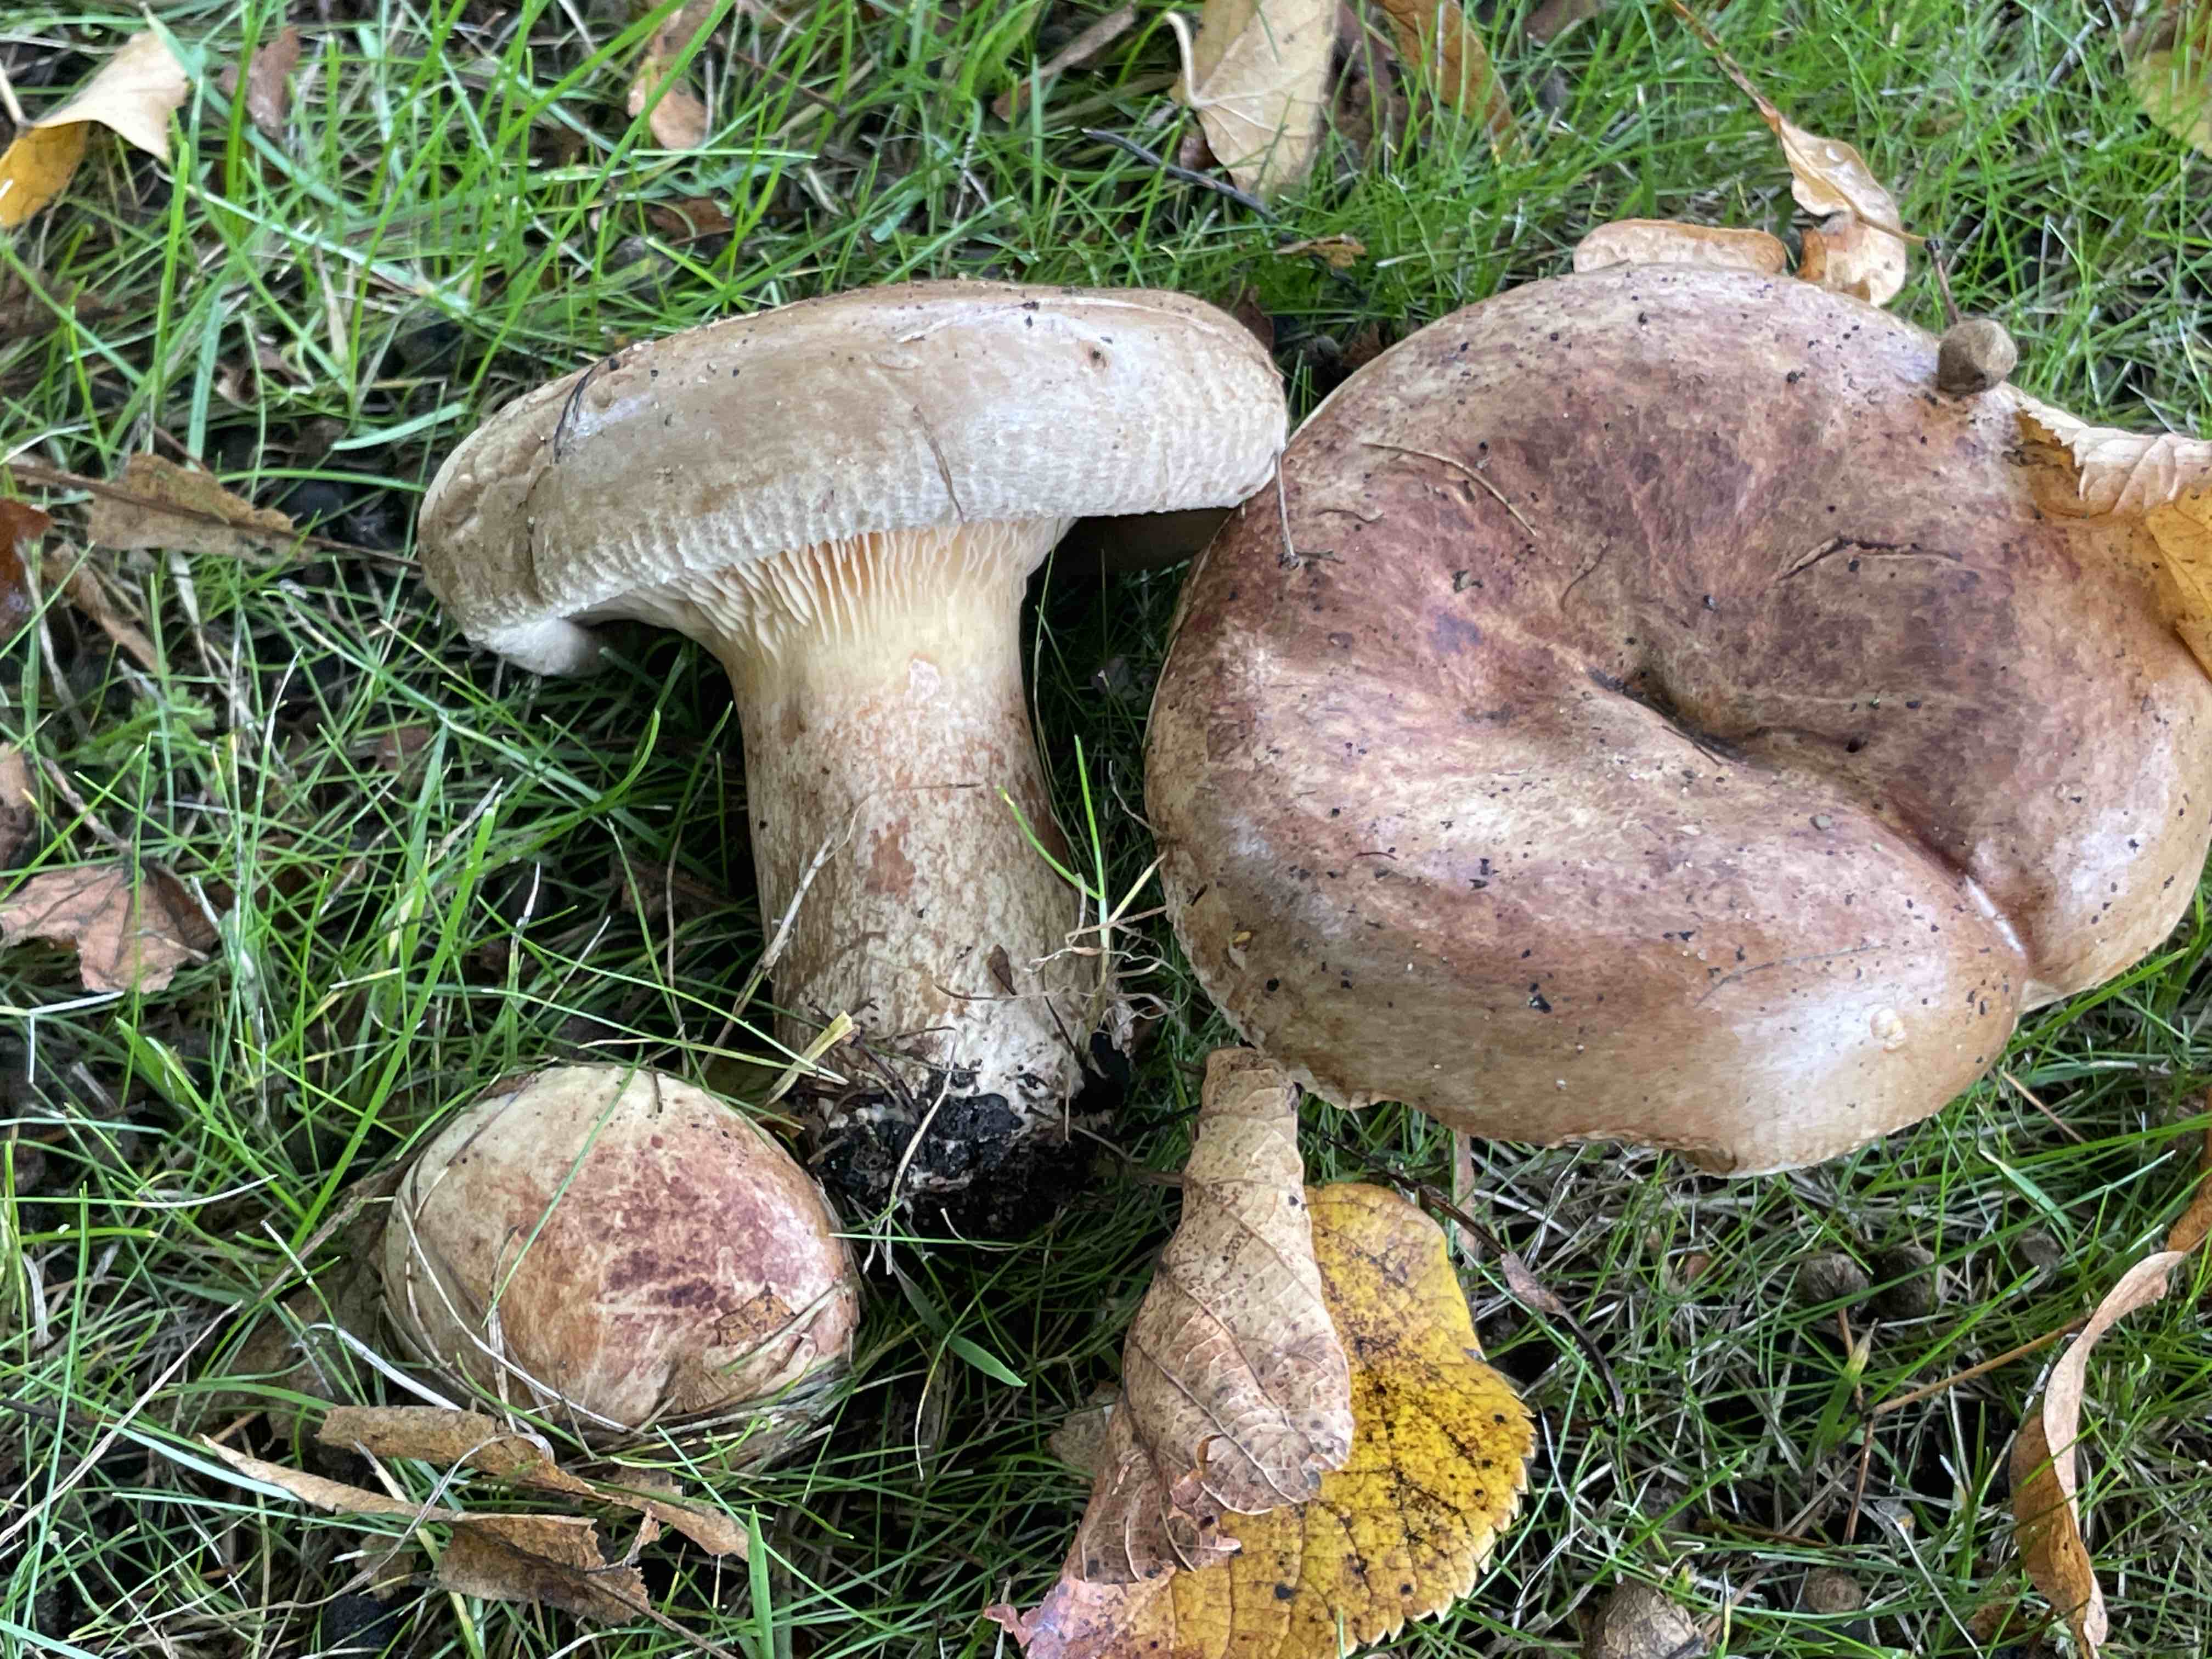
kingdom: Fungi
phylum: Basidiomycota
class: Agaricomycetes
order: Boletales
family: Paxillaceae
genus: Paxillus
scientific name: Paxillus obscurisporus
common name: mahognisporet netbladhat
